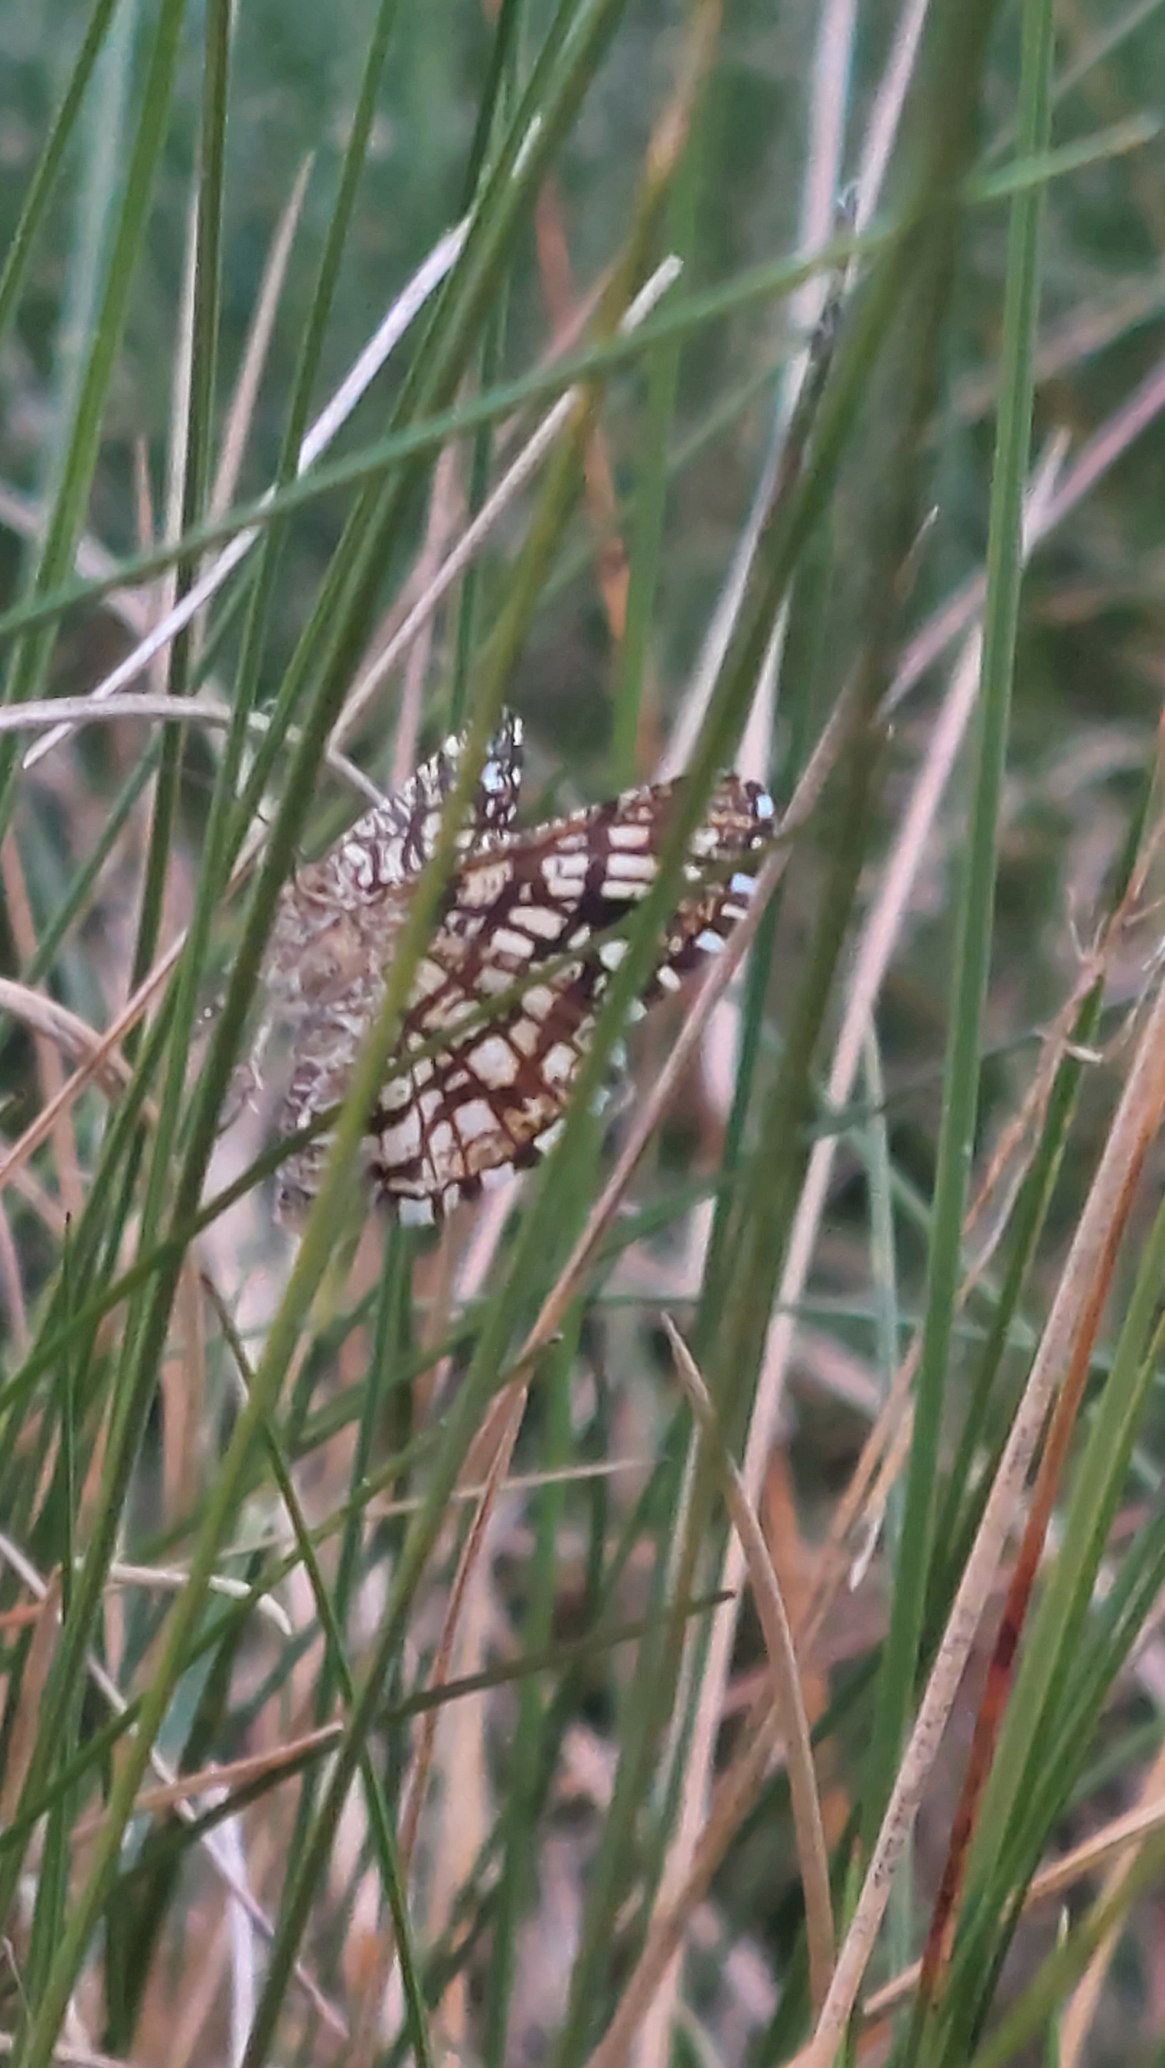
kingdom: Animalia
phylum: Arthropoda
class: Insecta
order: Lepidoptera
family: Geometridae
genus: Chiasmia
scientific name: Chiasmia clathrata
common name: Kløvermåler
